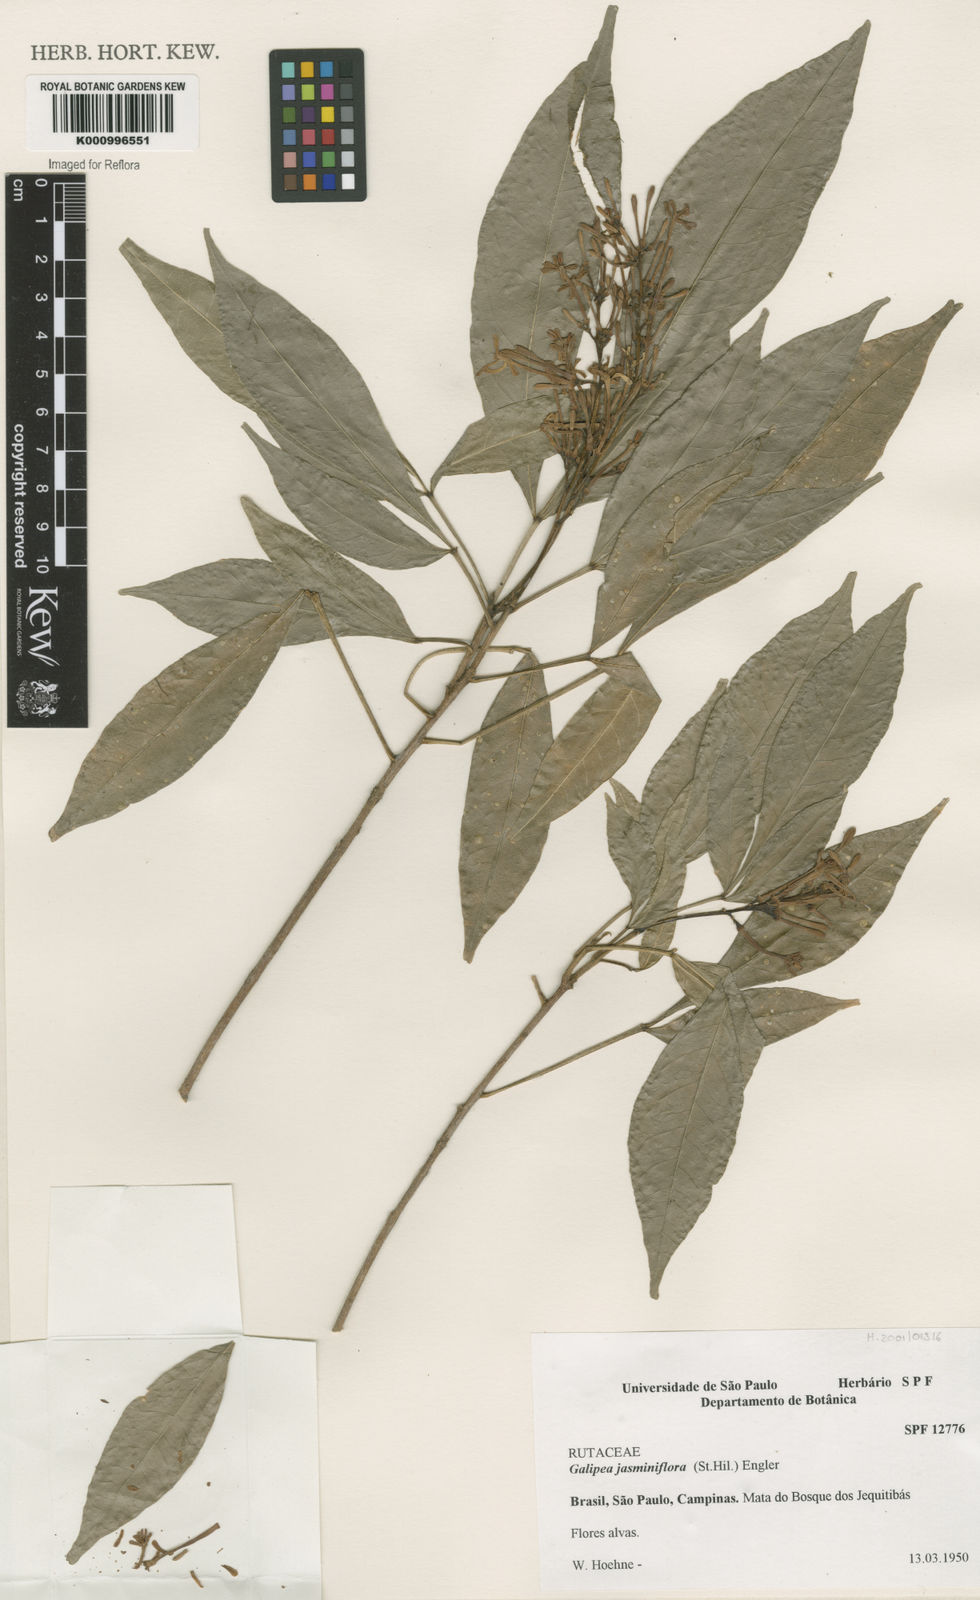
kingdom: Plantae
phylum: Tracheophyta
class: Magnoliopsida
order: Sapindales
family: Rutaceae
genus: Galipea
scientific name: Galipea
